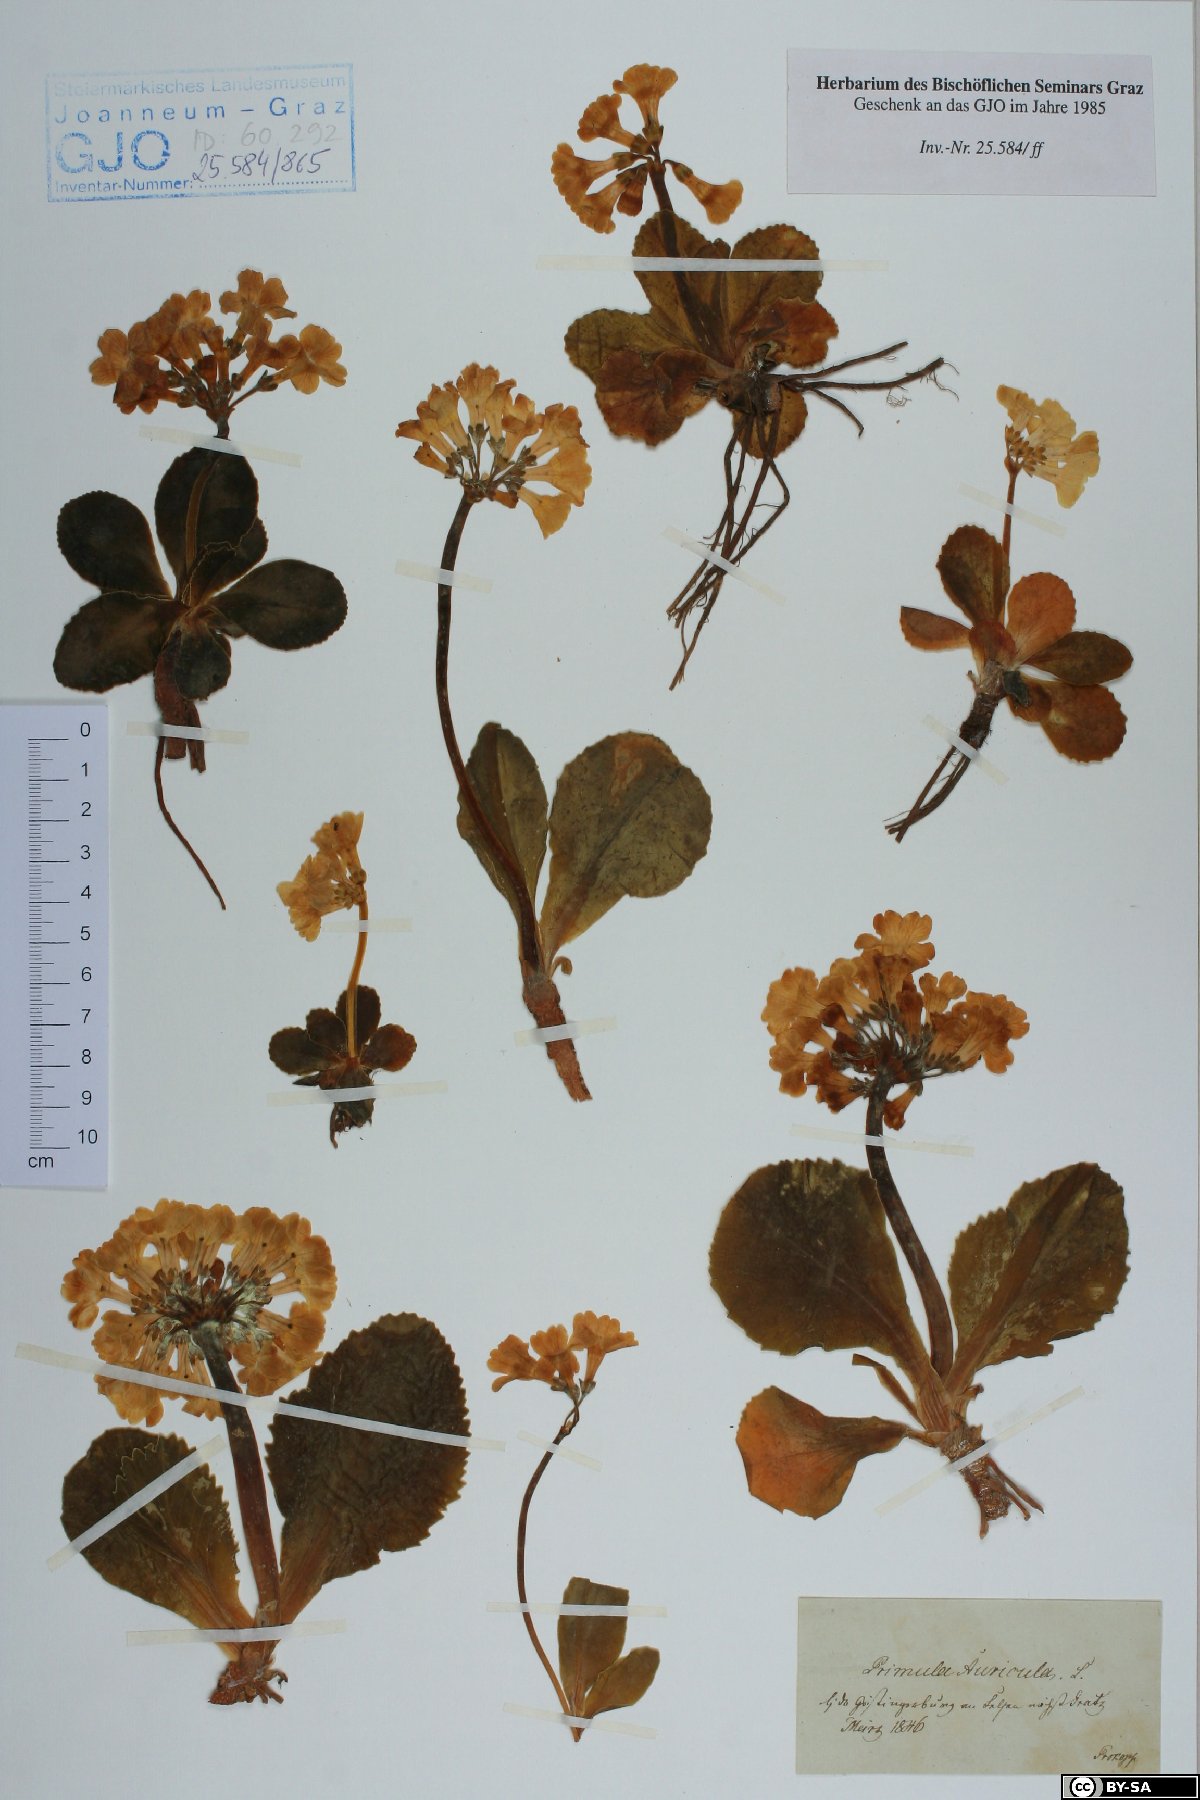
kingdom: Plantae
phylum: Tracheophyta
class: Magnoliopsida
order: Ericales
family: Primulaceae
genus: Primula
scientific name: Primula auricula
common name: Auricula
